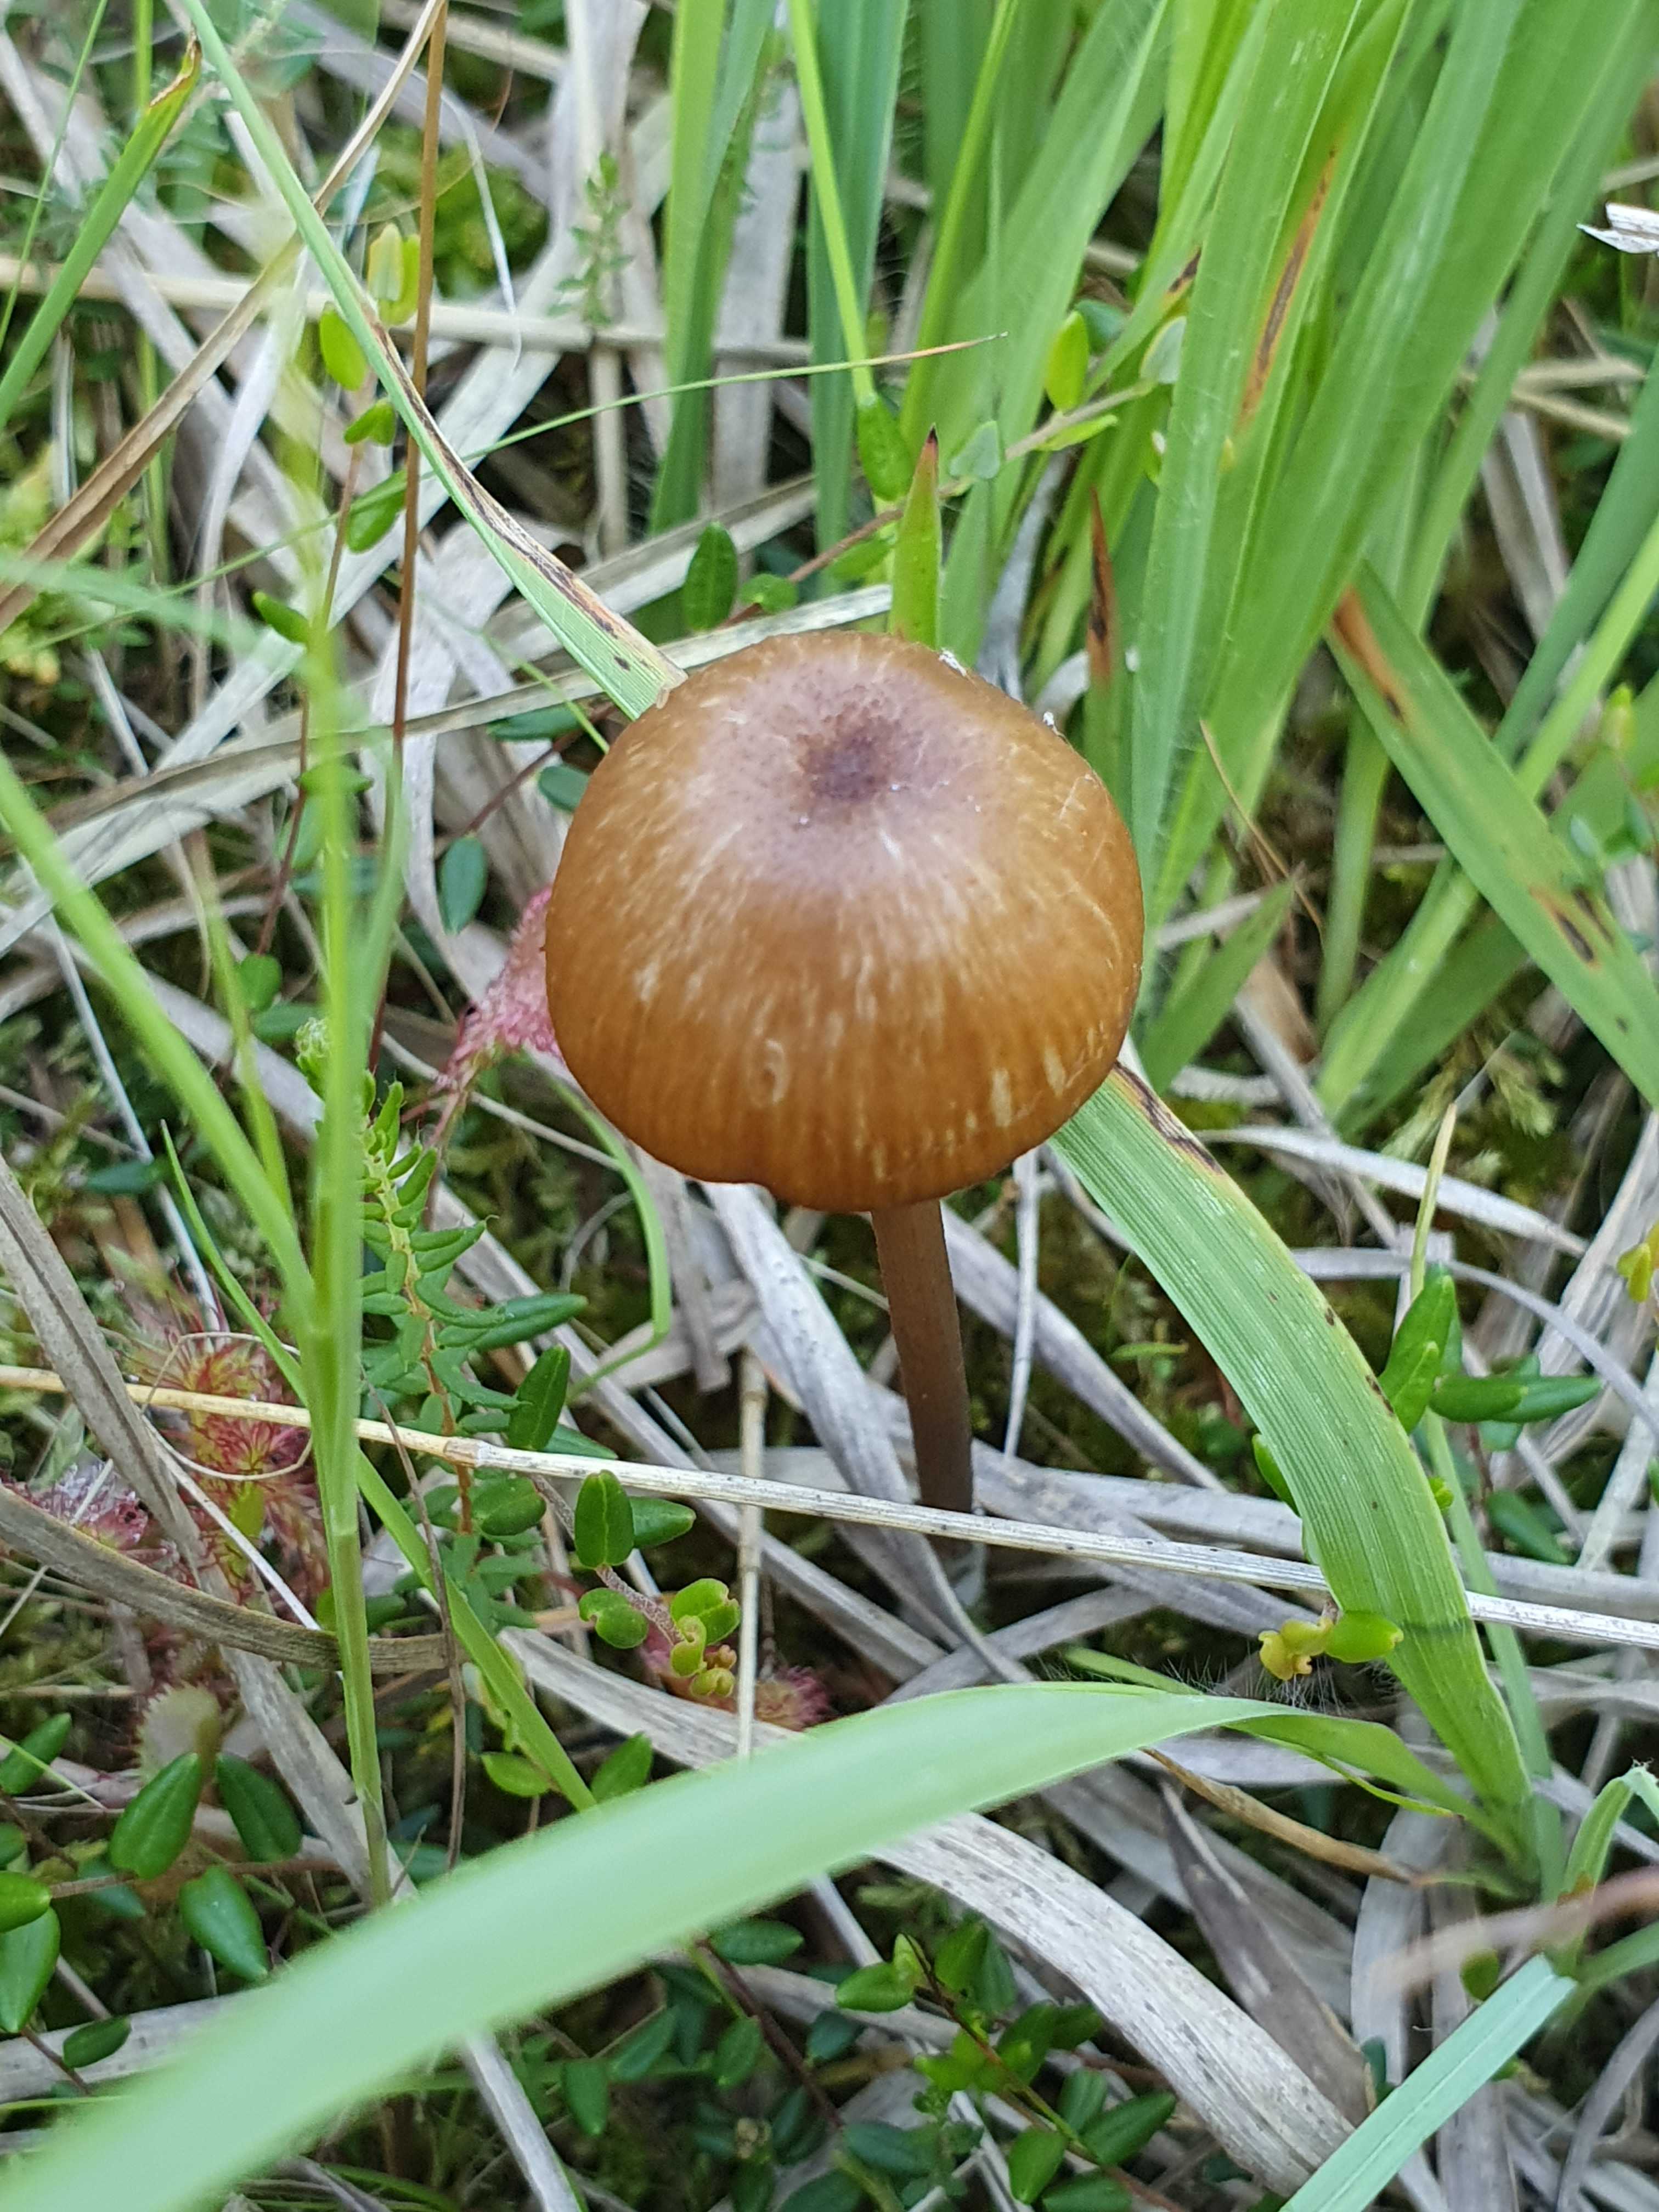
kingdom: Fungi
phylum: Basidiomycota
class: Agaricomycetes
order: Agaricales
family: Entolomataceae
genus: Entoloma
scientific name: Entoloma sphagnorum
